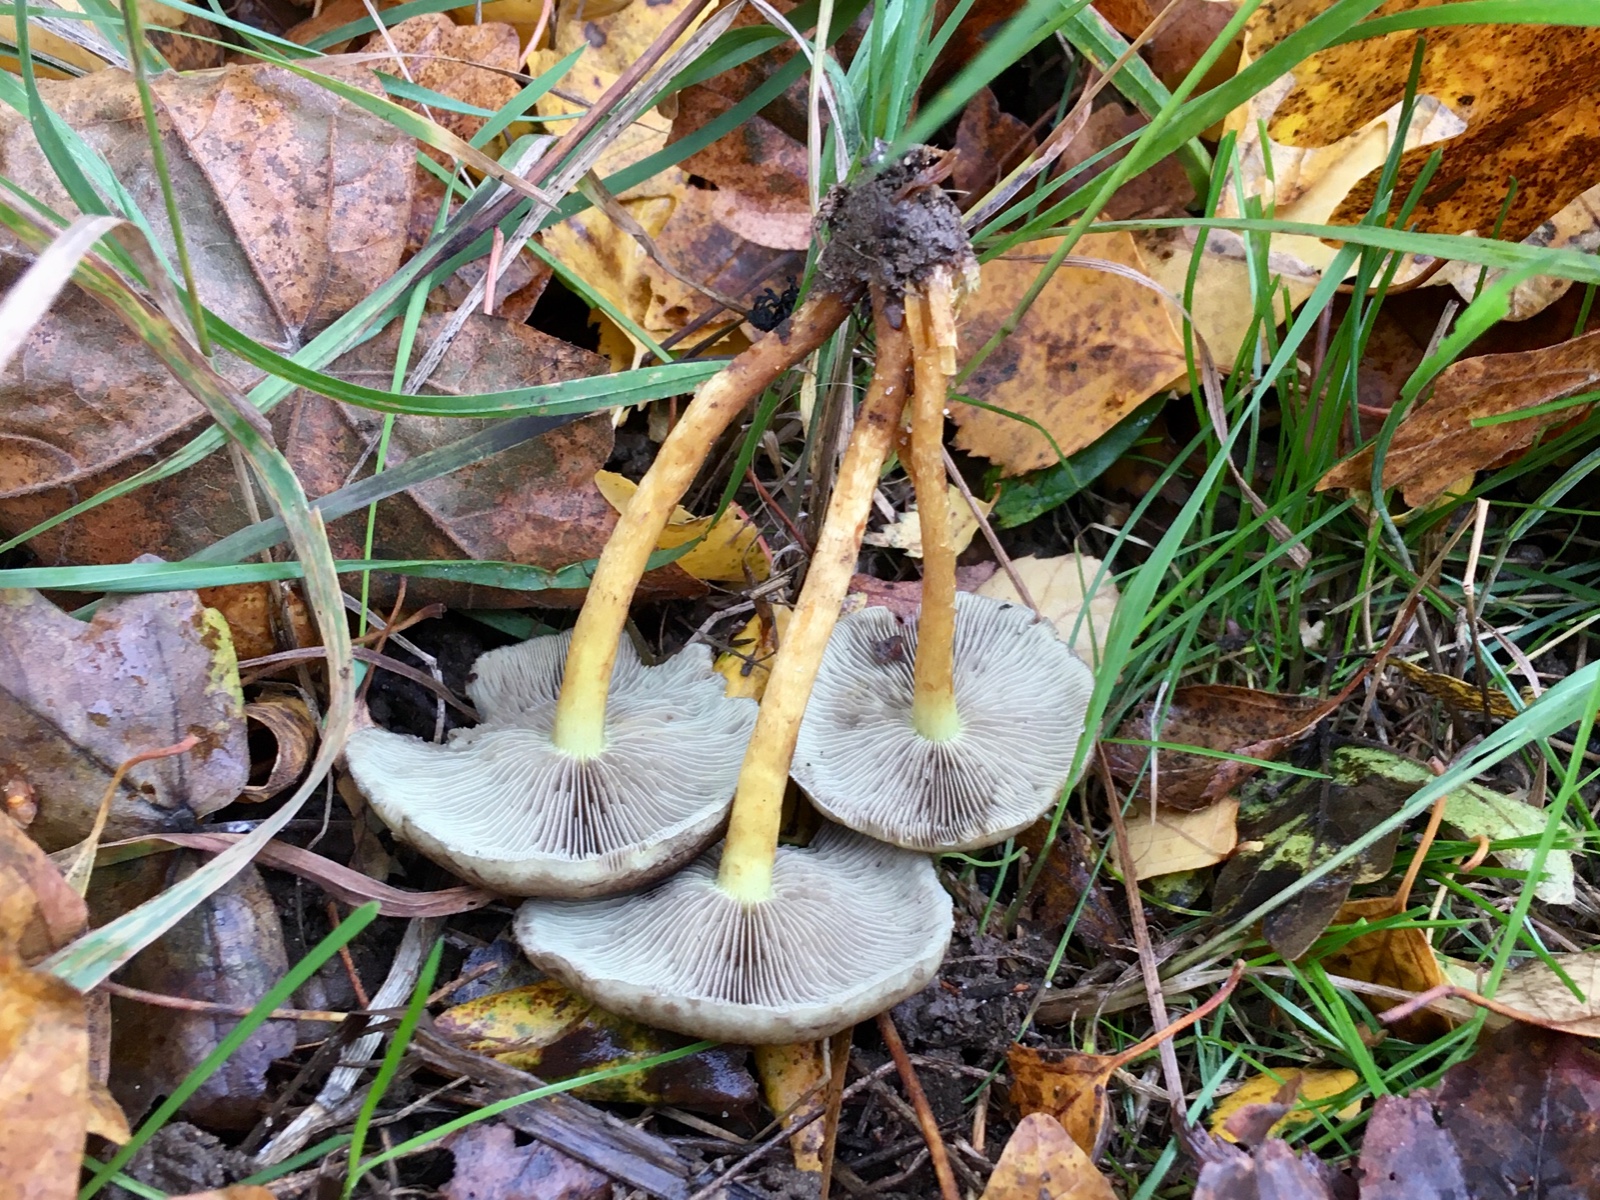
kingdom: Fungi
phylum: Basidiomycota
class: Agaricomycetes
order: Agaricales
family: Strophariaceae
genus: Hypholoma
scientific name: Hypholoma fasciculare
